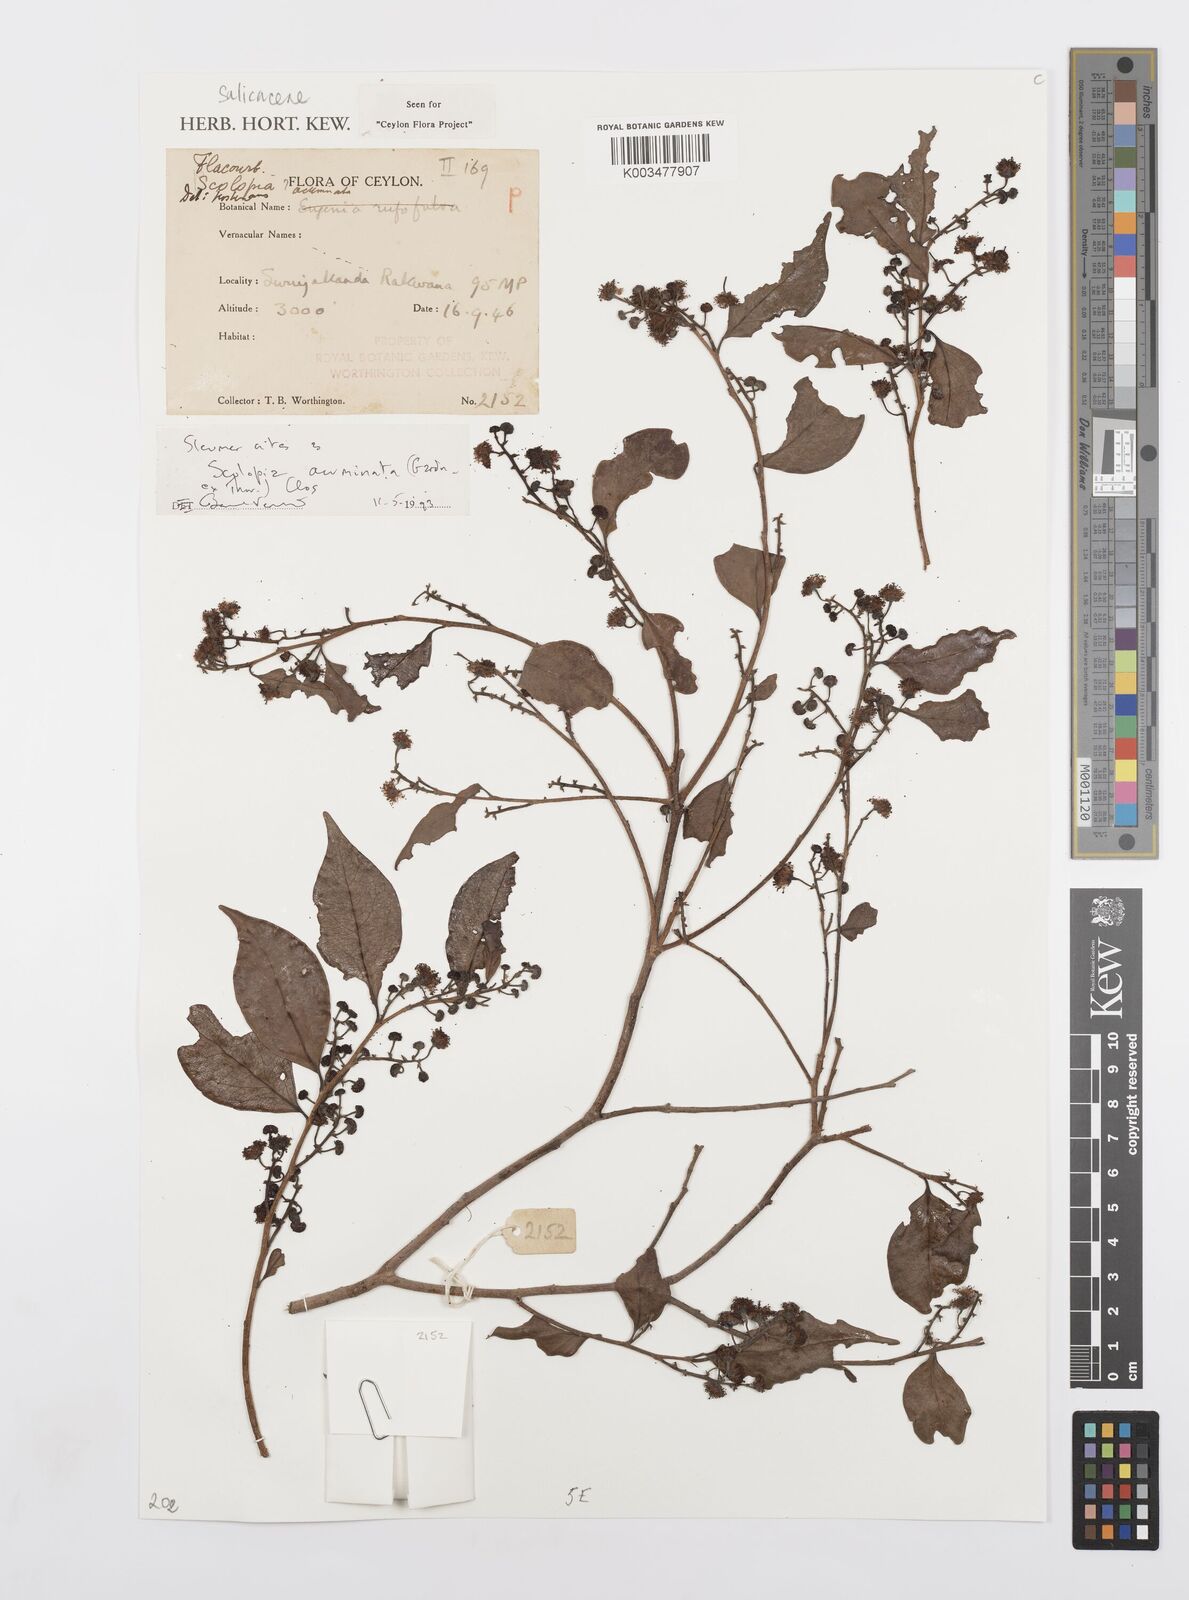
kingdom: Plantae
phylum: Tracheophyta
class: Magnoliopsida
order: Malpighiales
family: Salicaceae
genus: Scolopia
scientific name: Scolopia acuminata
